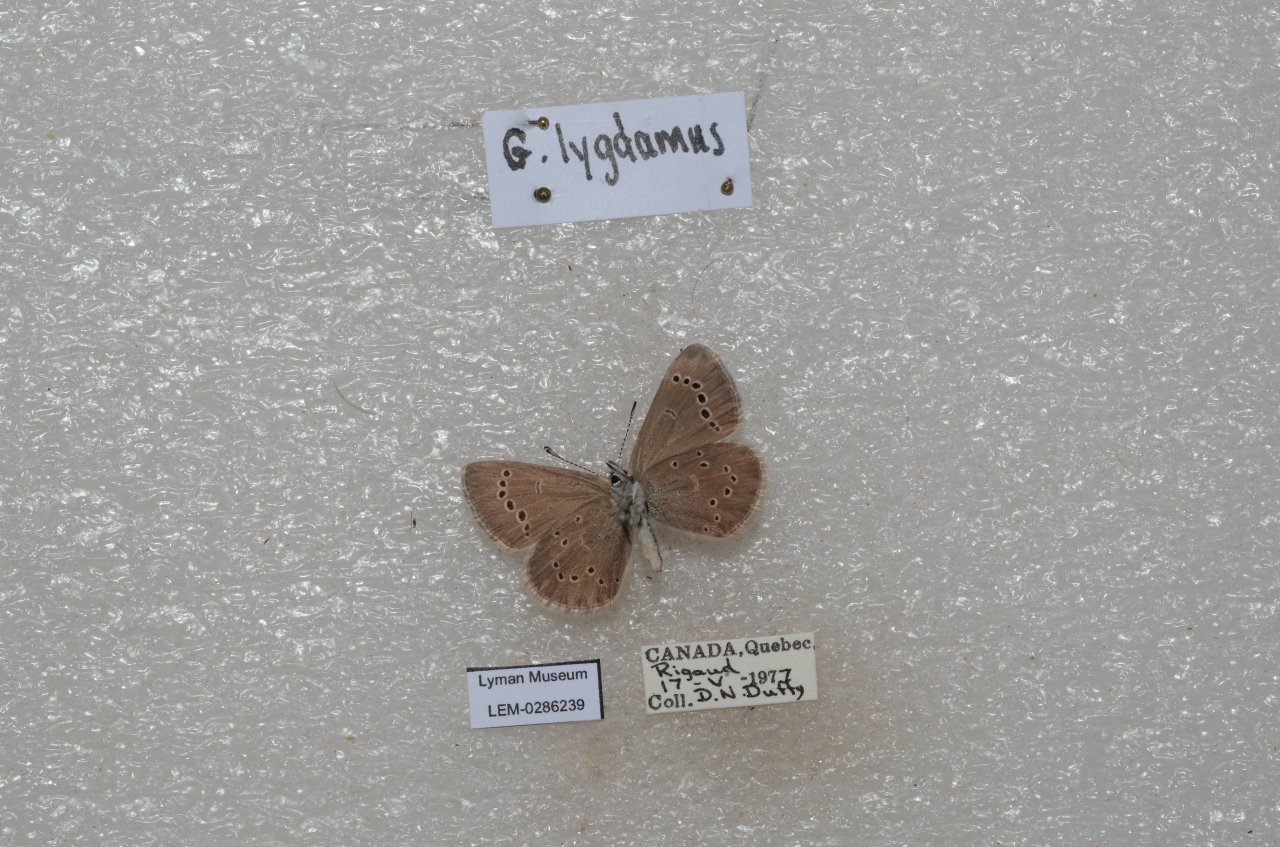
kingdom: Animalia
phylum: Arthropoda
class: Insecta
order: Lepidoptera
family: Lycaenidae
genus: Glaucopsyche
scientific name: Glaucopsyche lygdamus
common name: Silvery Blue
